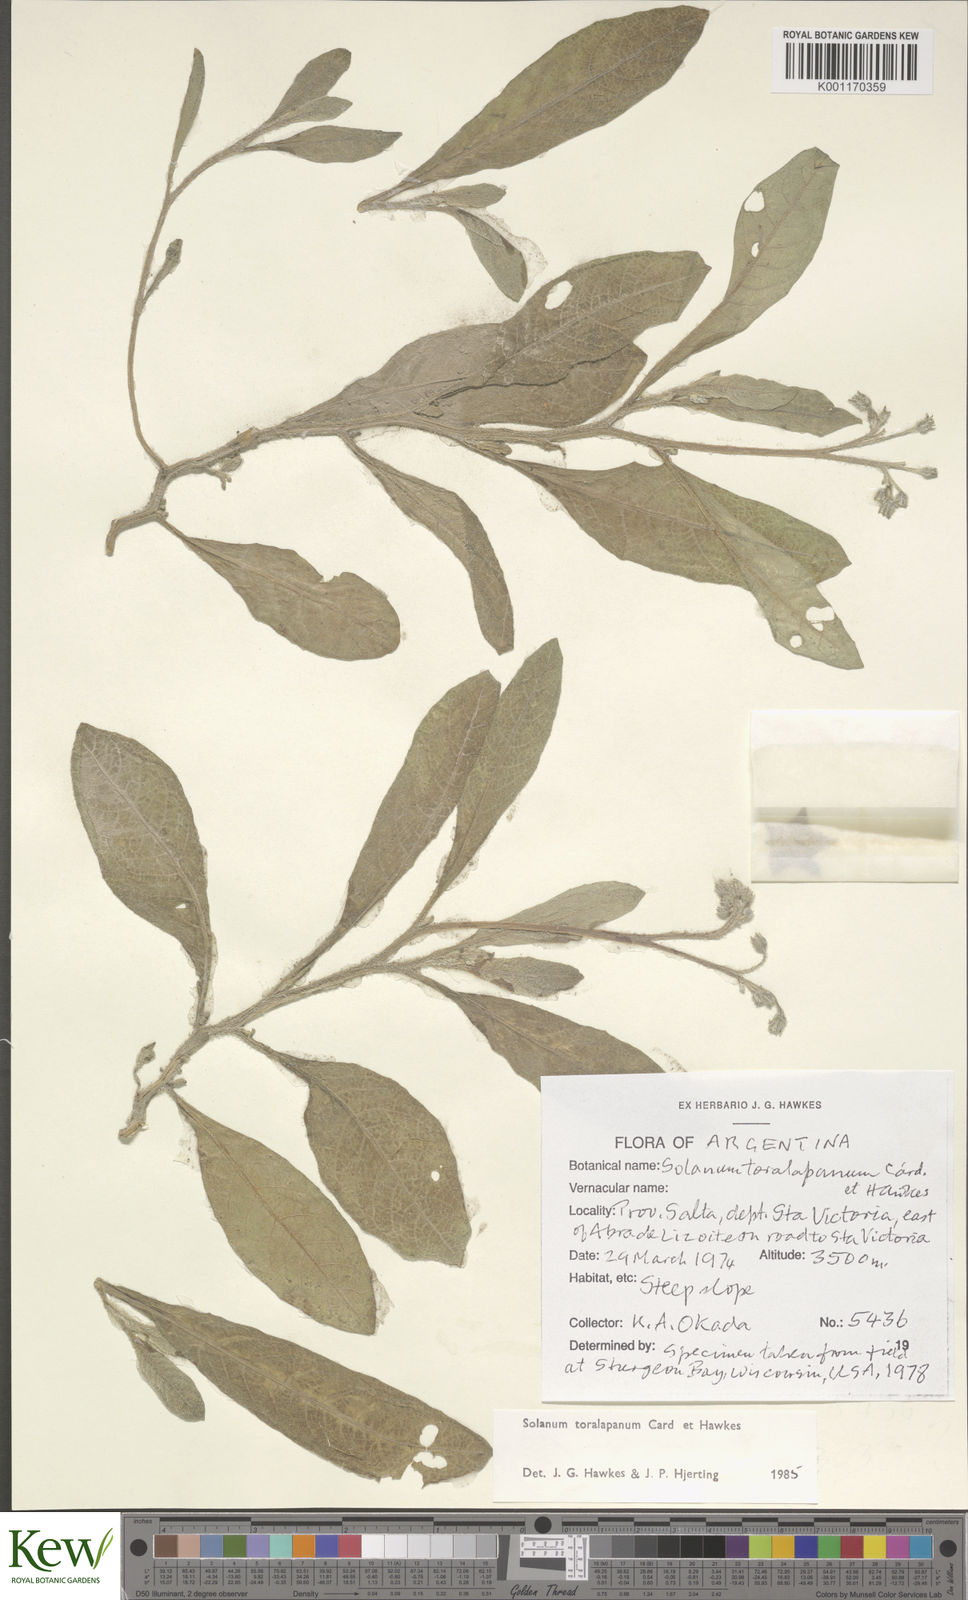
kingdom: Plantae
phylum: Tracheophyta
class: Magnoliopsida
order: Solanales
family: Solanaceae
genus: Solanum
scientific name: Solanum
